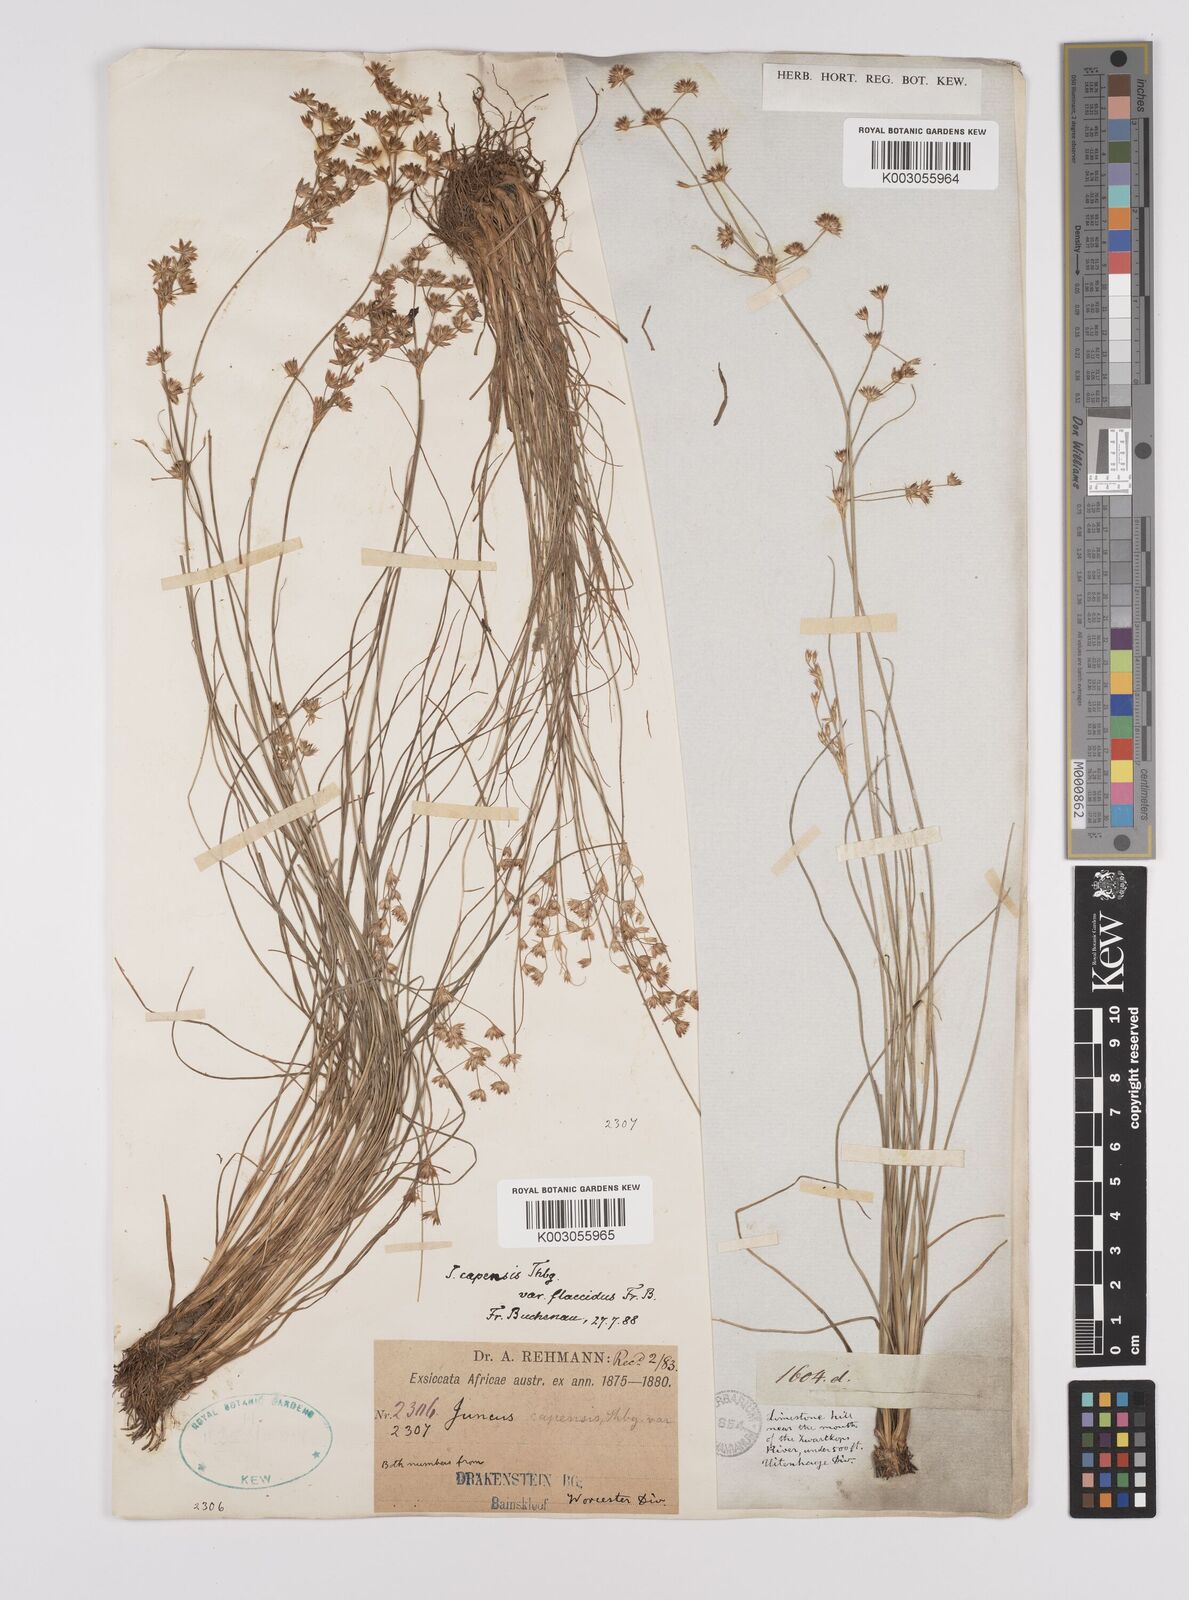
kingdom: Plantae
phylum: Tracheophyta
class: Liliopsida
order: Poales
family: Juncaceae
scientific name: Juncaceae
